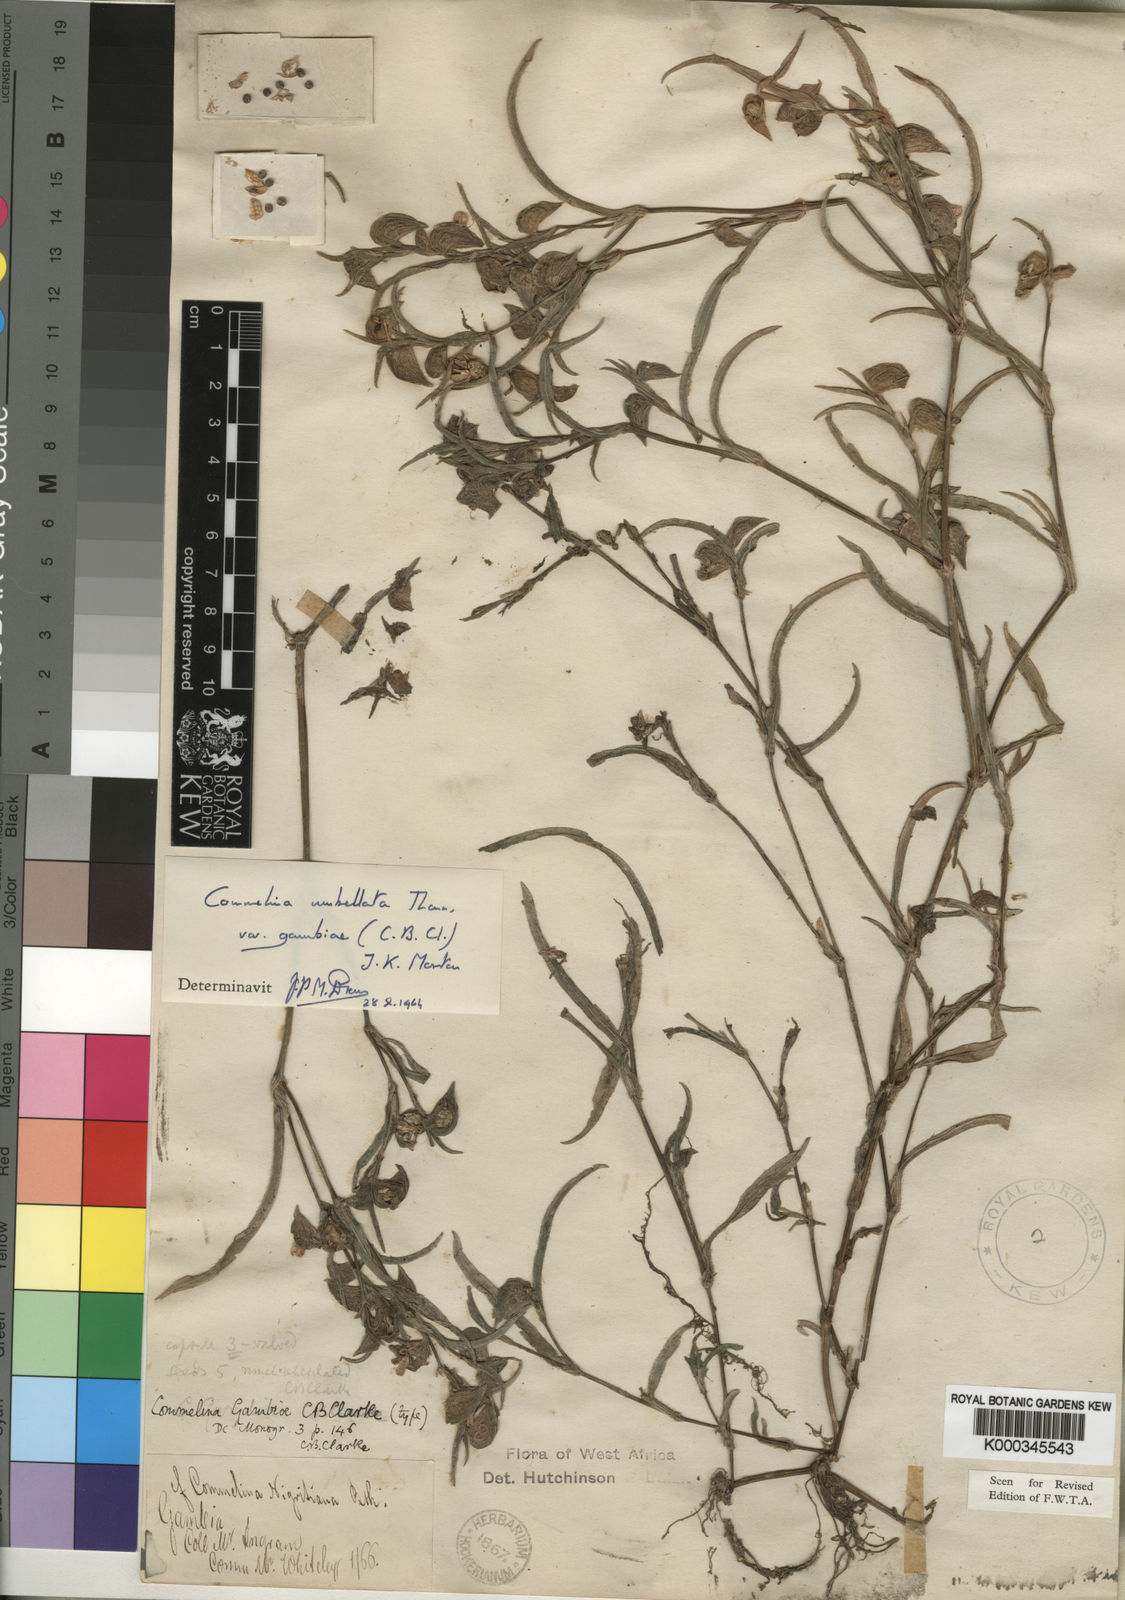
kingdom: Plantae
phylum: Tracheophyta
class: Liliopsida
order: Commelinales
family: Commelinaceae
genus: Commelina
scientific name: Commelina nigritana
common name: African dayflower
